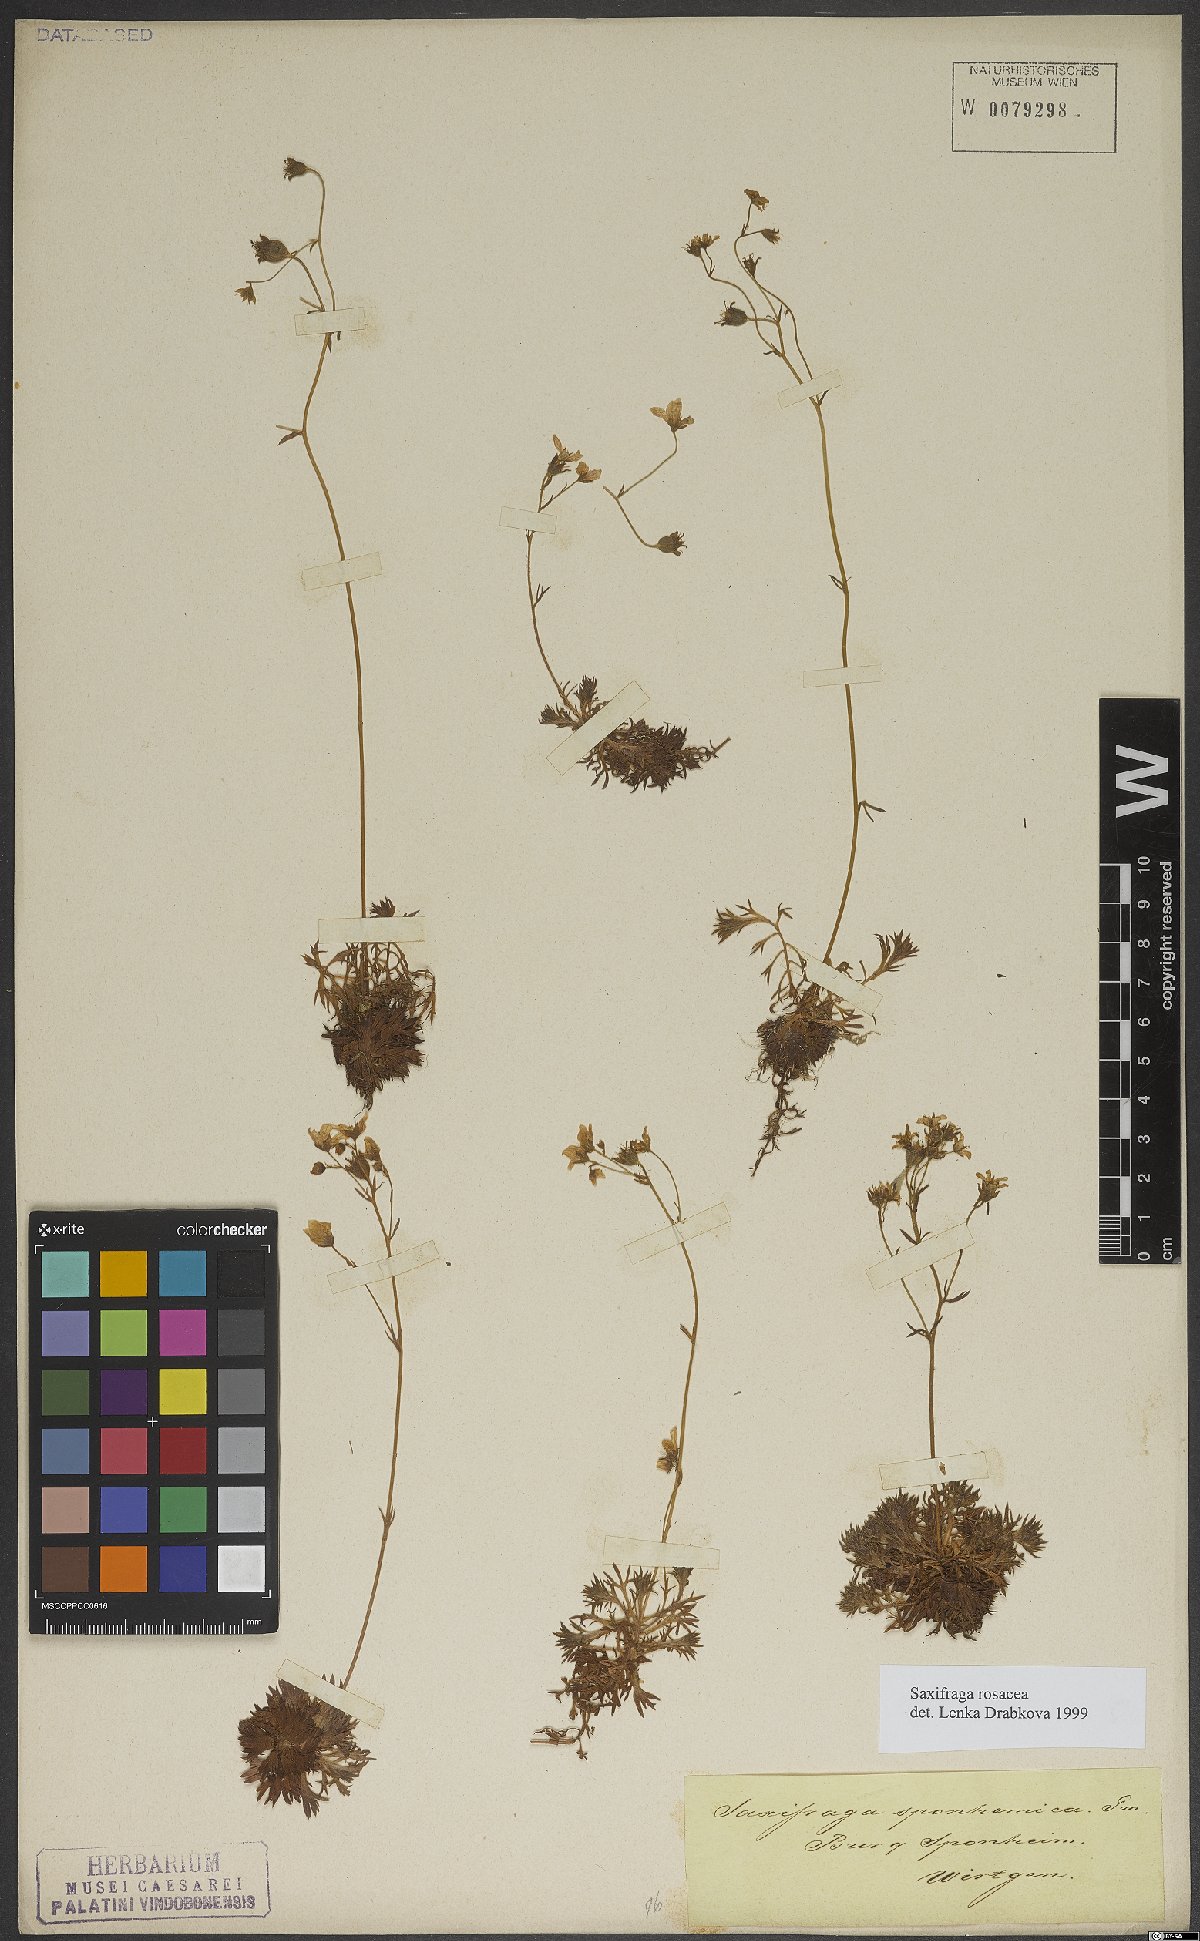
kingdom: Plantae
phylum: Tracheophyta
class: Magnoliopsida
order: Saxifragales
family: Saxifragaceae
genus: Saxifraga
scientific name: Saxifraga rosacea
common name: Irish saxifrage
